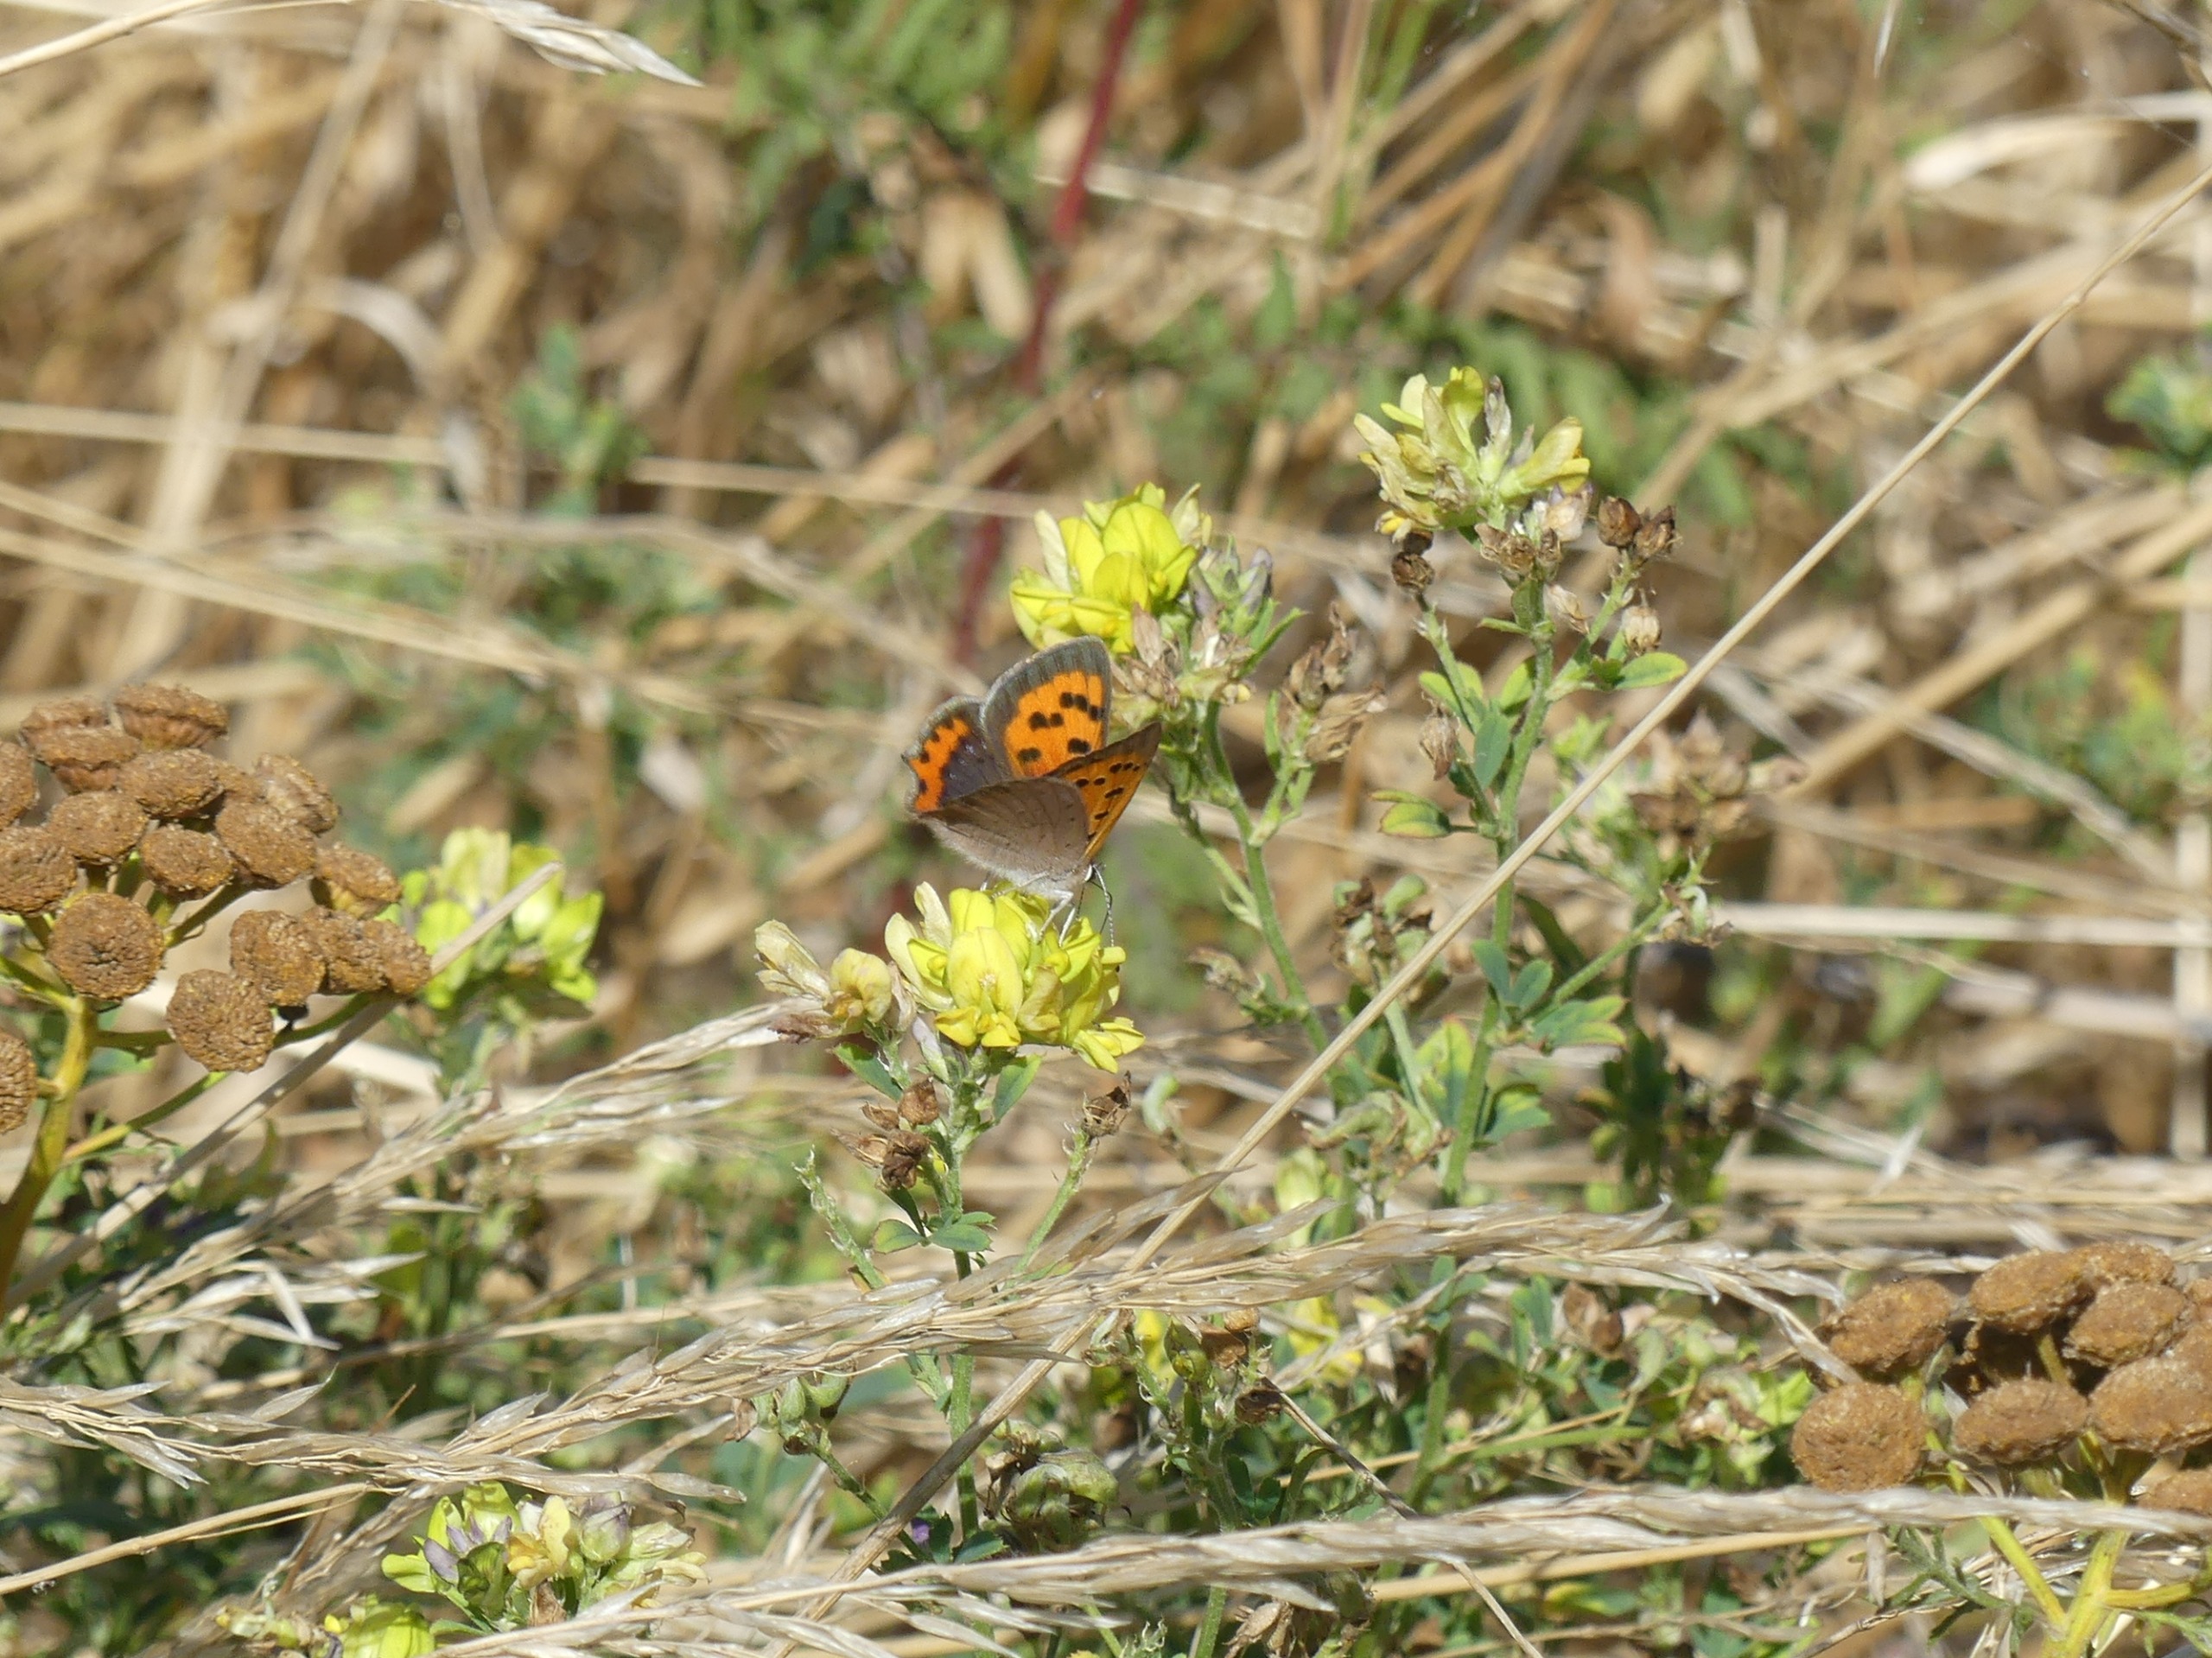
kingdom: Animalia
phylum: Arthropoda
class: Insecta
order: Lepidoptera
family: Lycaenidae
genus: Lycaena
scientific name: Lycaena phlaeas
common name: Lille ildfugl
